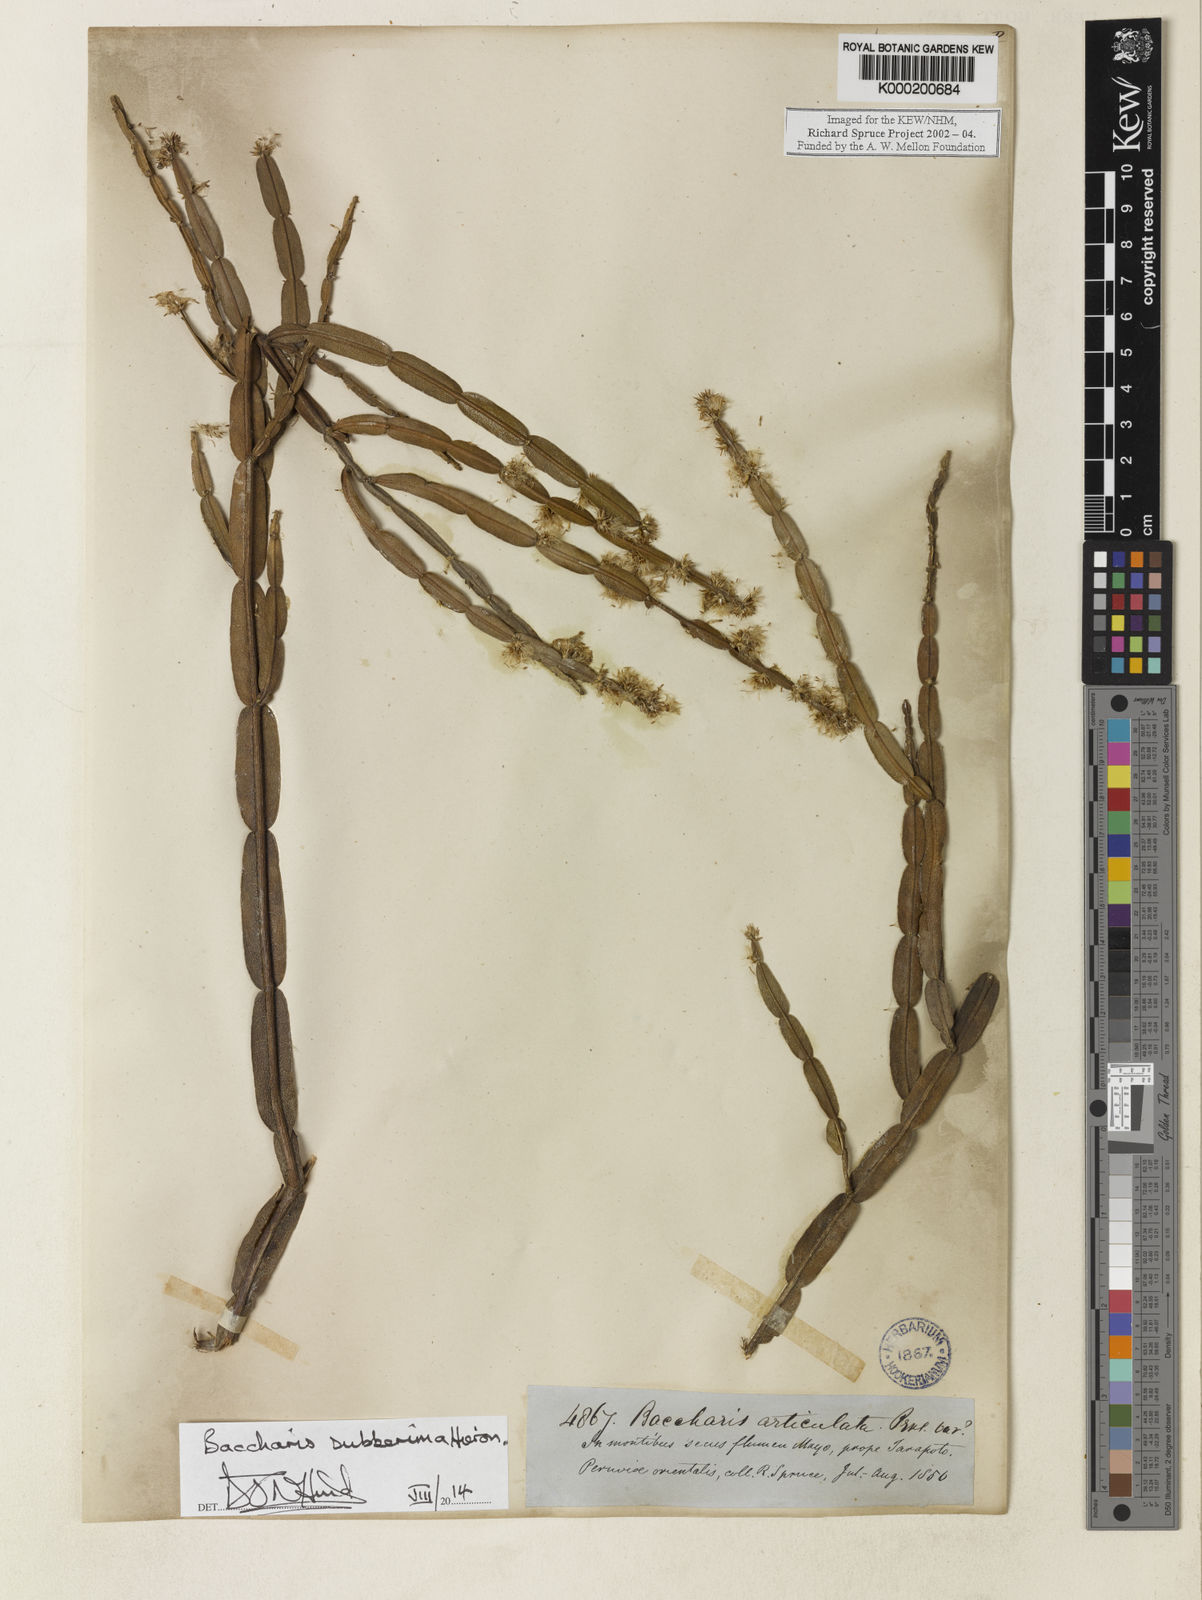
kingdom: Plantae
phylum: Tracheophyta
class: Magnoliopsida
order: Asterales
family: Asteraceae
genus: Baccharis
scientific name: Baccharis subbimera
